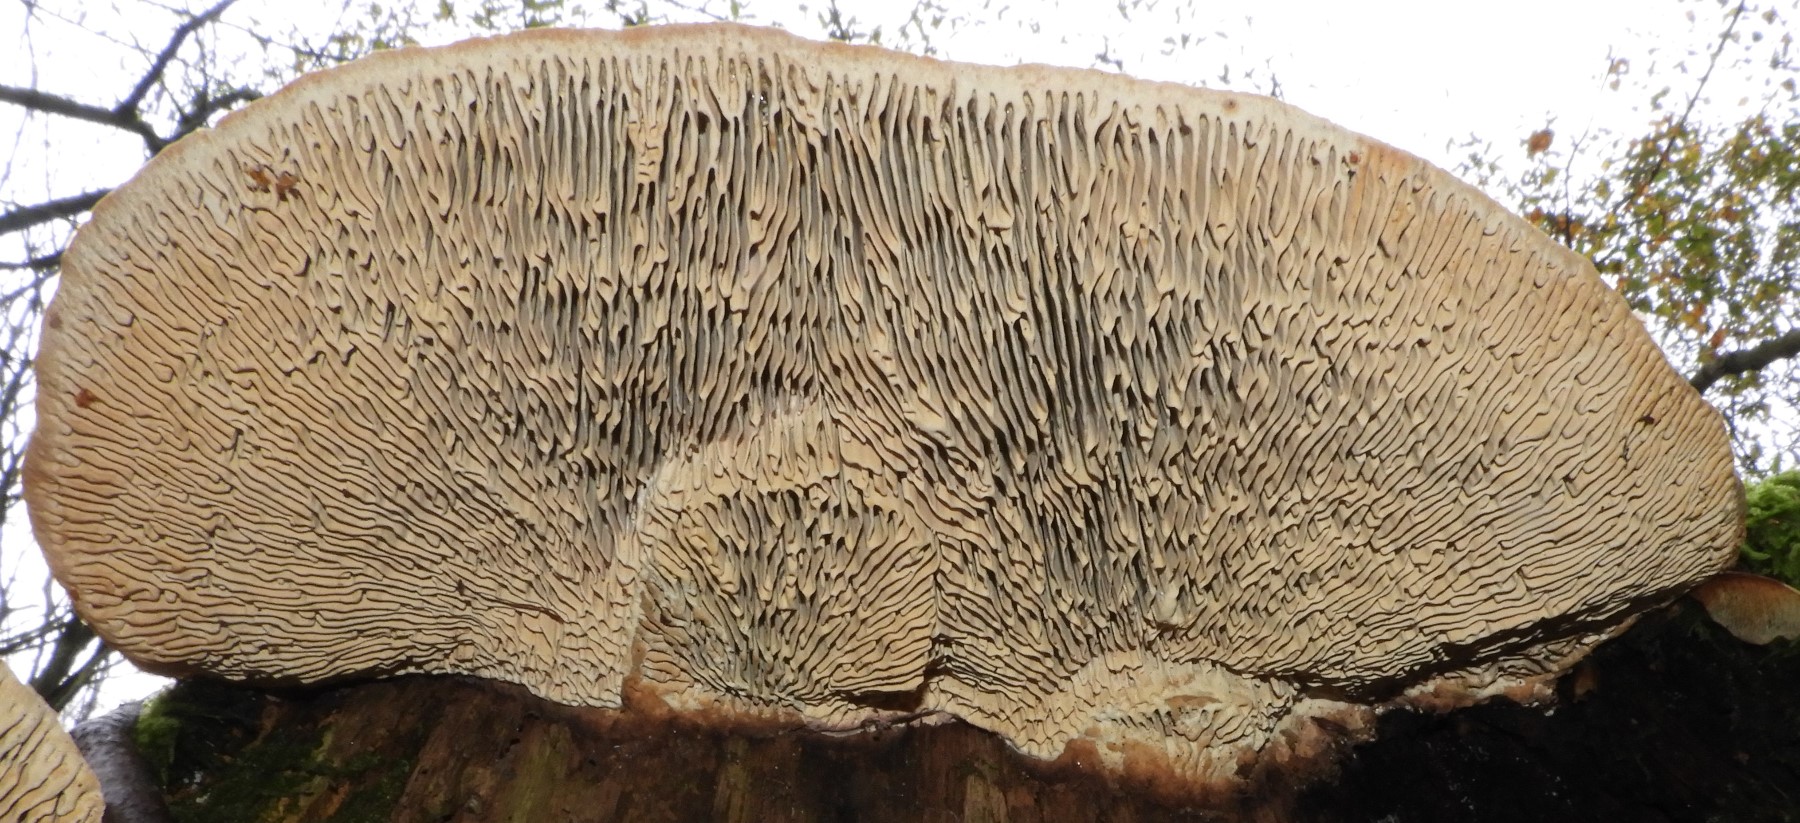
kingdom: Fungi
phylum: Basidiomycota
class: Agaricomycetes
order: Polyporales
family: Fomitopsidaceae
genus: Daedalea
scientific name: Daedalea quercina
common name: ege-labyrintsvamp
